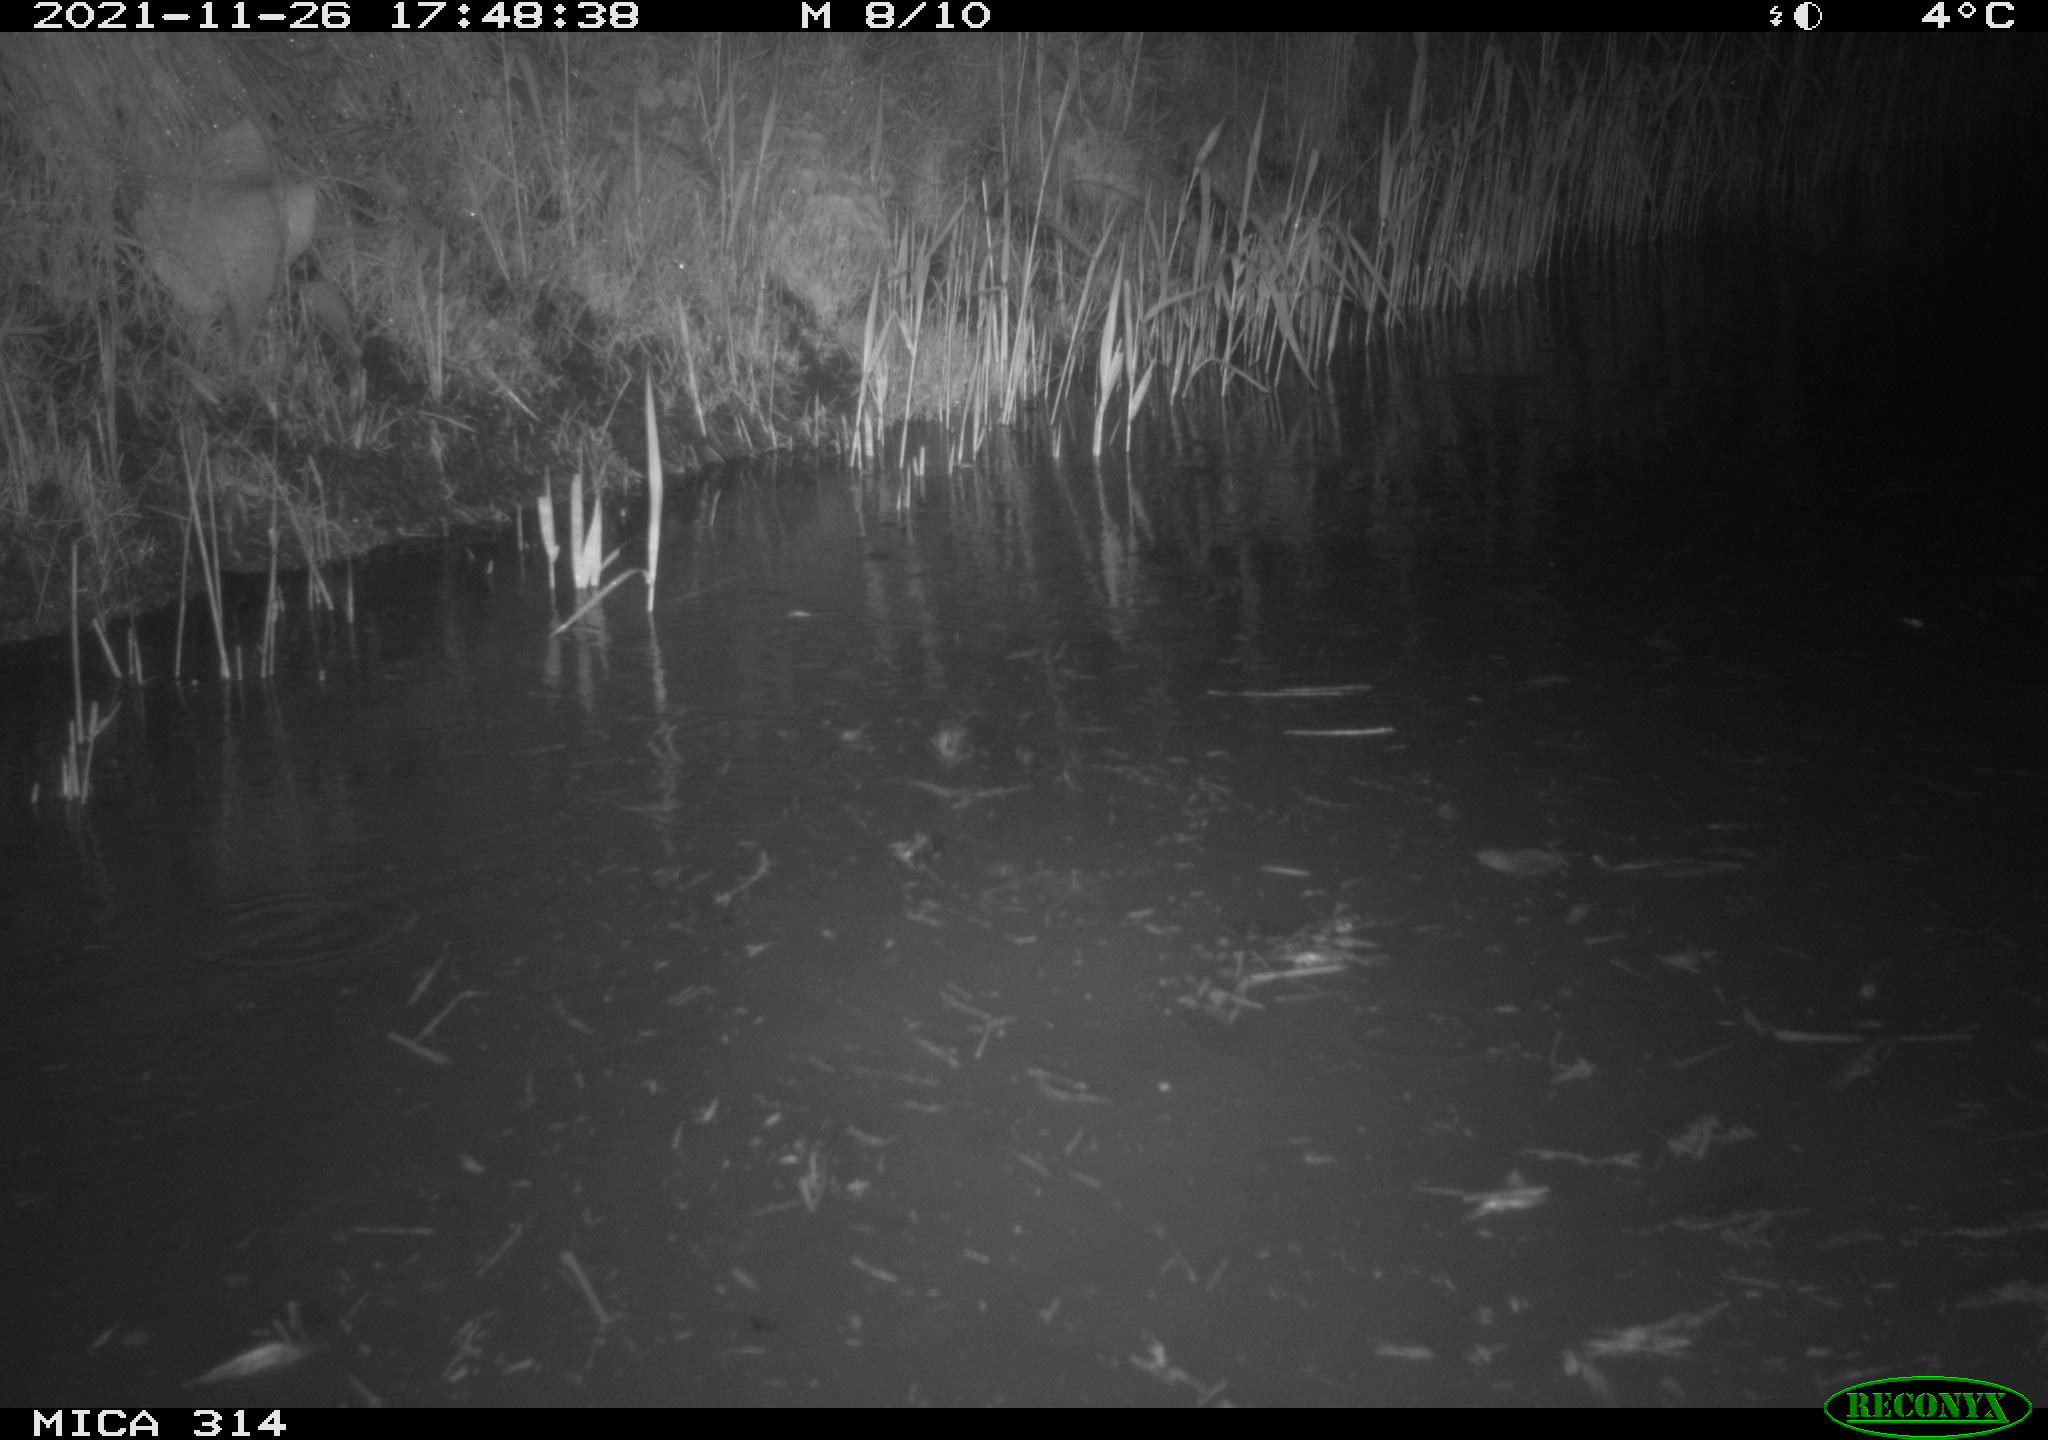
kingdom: Animalia
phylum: Chordata
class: Aves
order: Gruiformes
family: Rallidae
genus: Gallinula
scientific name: Gallinula chloropus
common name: Common moorhen
